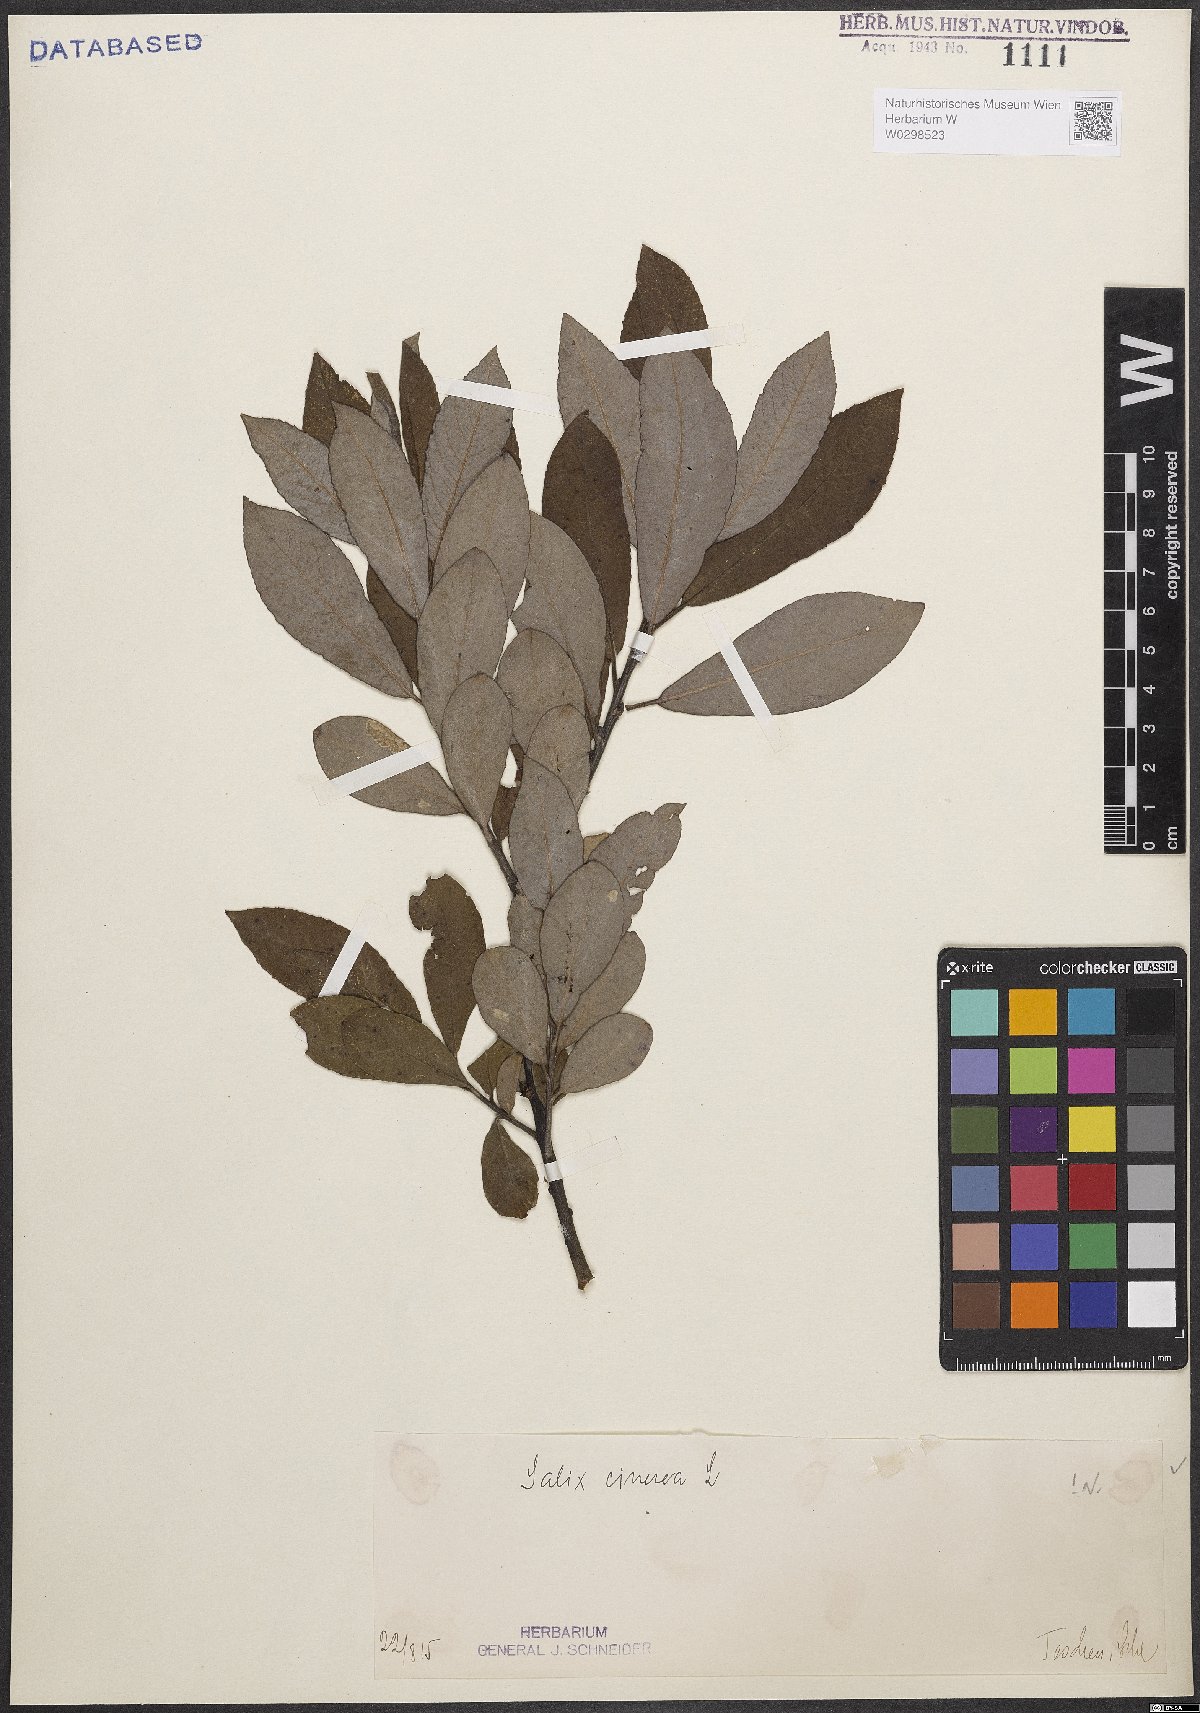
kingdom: Plantae
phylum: Tracheophyta
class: Magnoliopsida
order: Malpighiales
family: Salicaceae
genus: Salix
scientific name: Salix cinerea
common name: Common sallow
